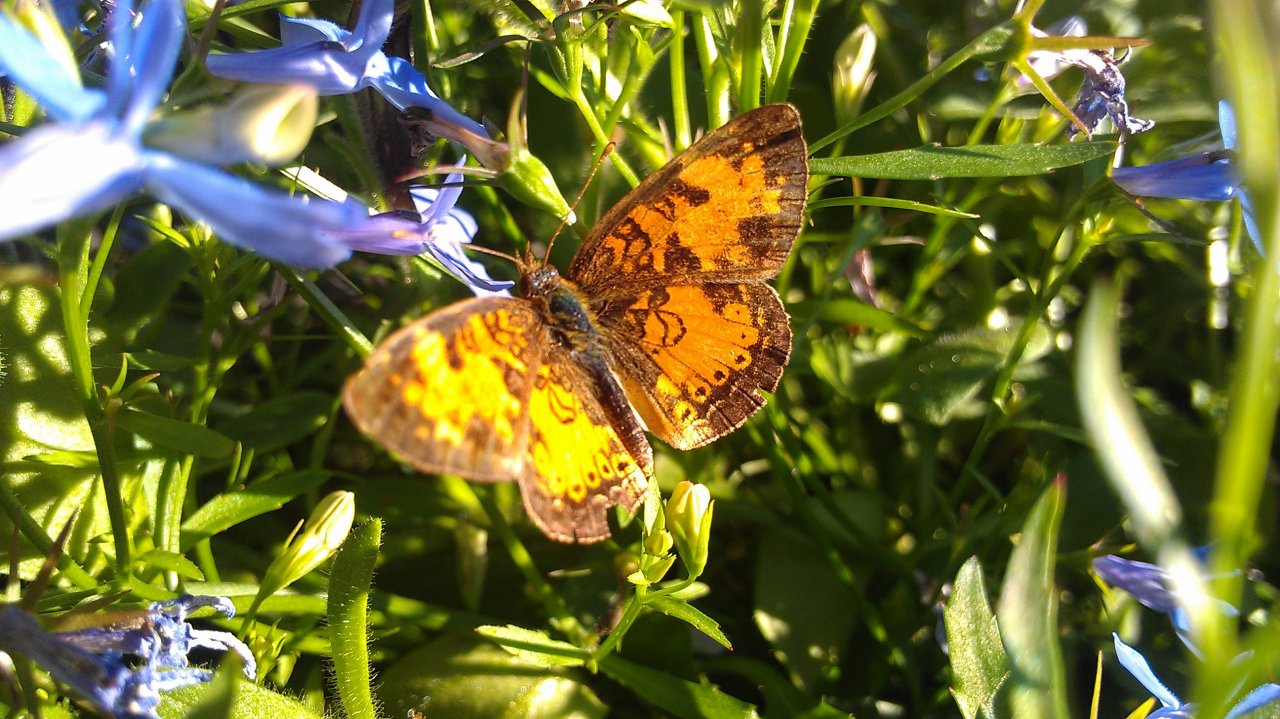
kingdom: Animalia
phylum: Arthropoda
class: Insecta
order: Lepidoptera
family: Nymphalidae
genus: Phyciodes
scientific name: Phyciodes tharos
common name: Northern Crescent
